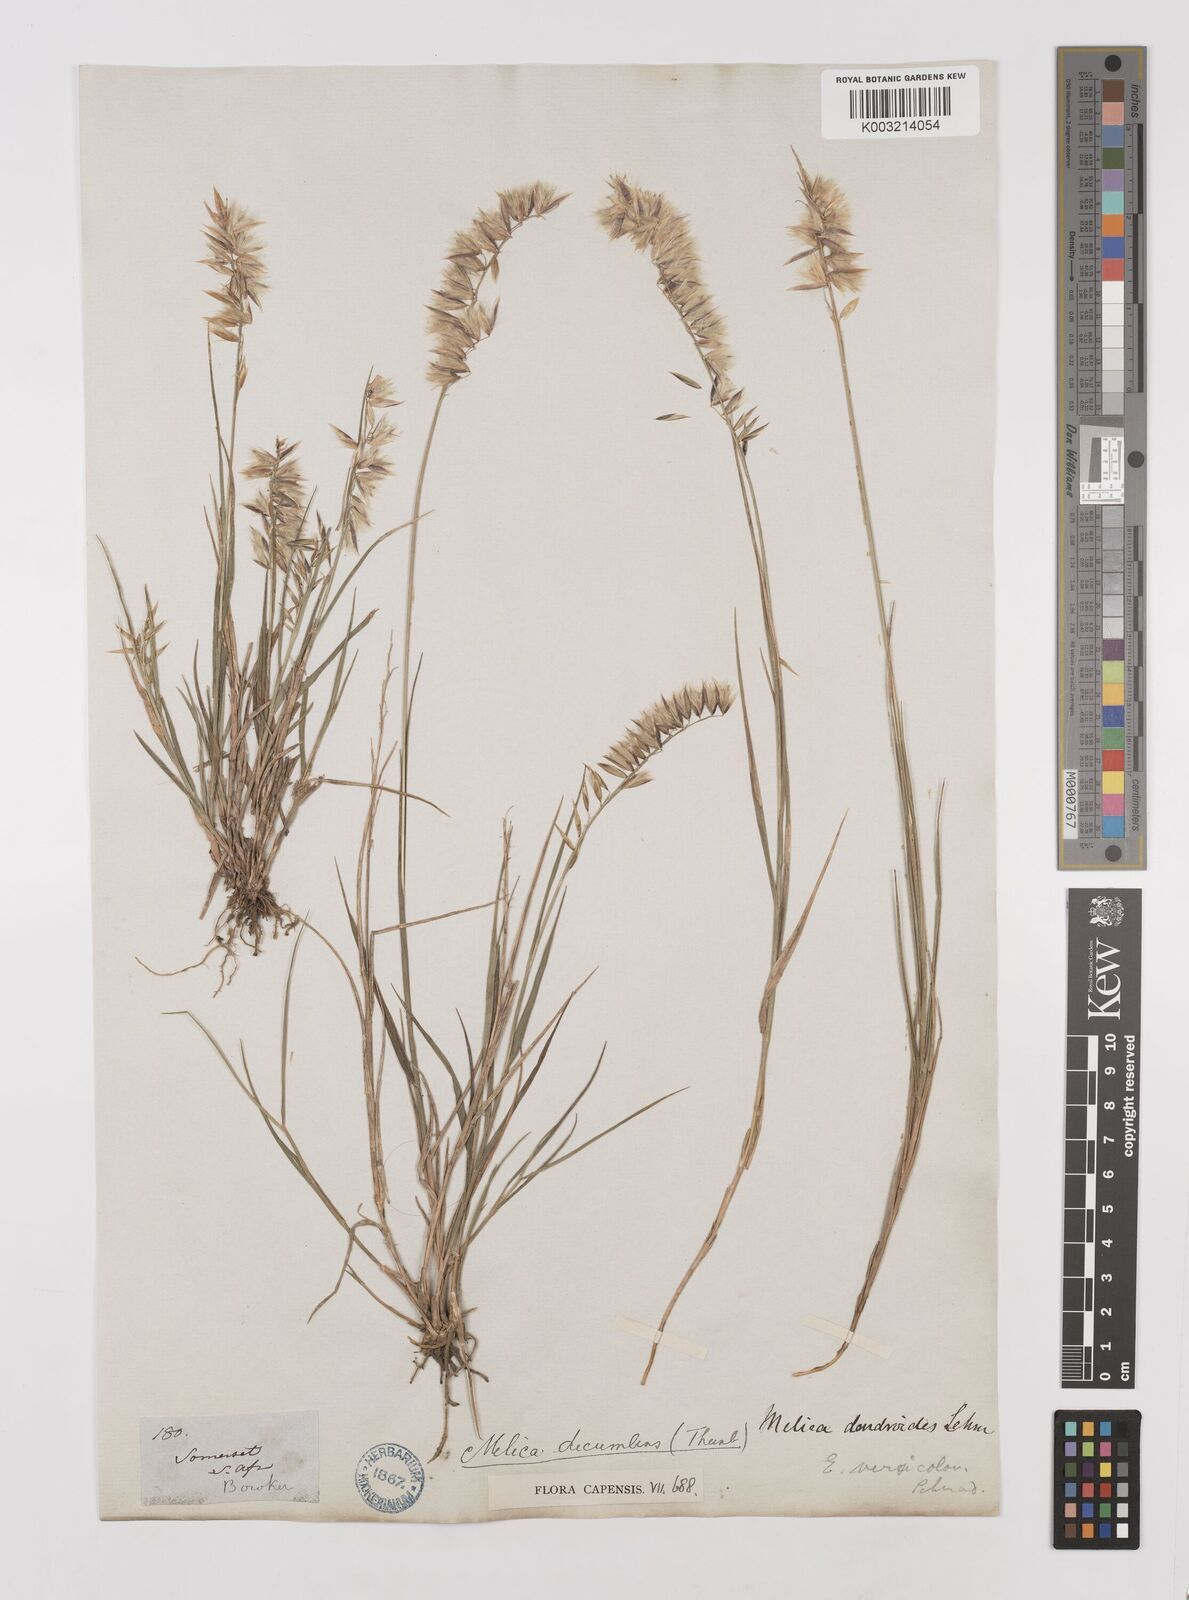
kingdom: Plantae
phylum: Tracheophyta
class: Liliopsida
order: Poales
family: Poaceae
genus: Melica
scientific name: Melica dendroides
